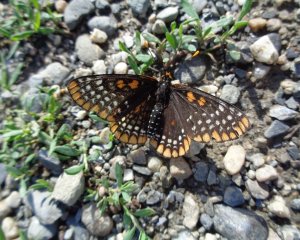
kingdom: Animalia
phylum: Arthropoda
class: Insecta
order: Lepidoptera
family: Nymphalidae
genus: Euphydryas
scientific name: Euphydryas phaeton
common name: Baltimore Checkerspot
